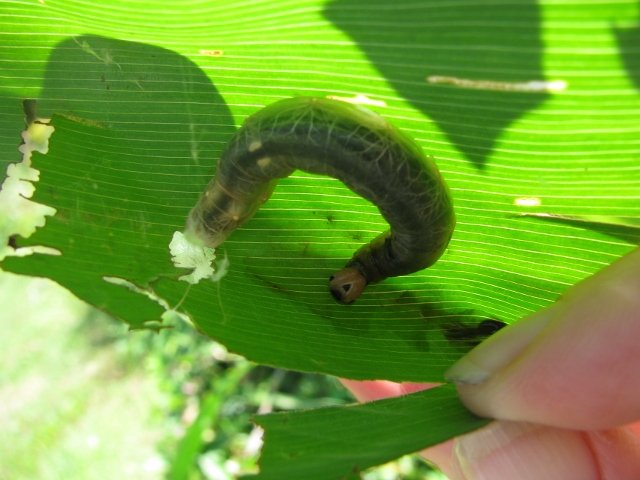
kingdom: Animalia
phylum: Arthropoda
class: Insecta
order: Lepidoptera
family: Hesperiidae
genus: Calpodes
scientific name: Calpodes ethlius
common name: Brazilian Skipper
